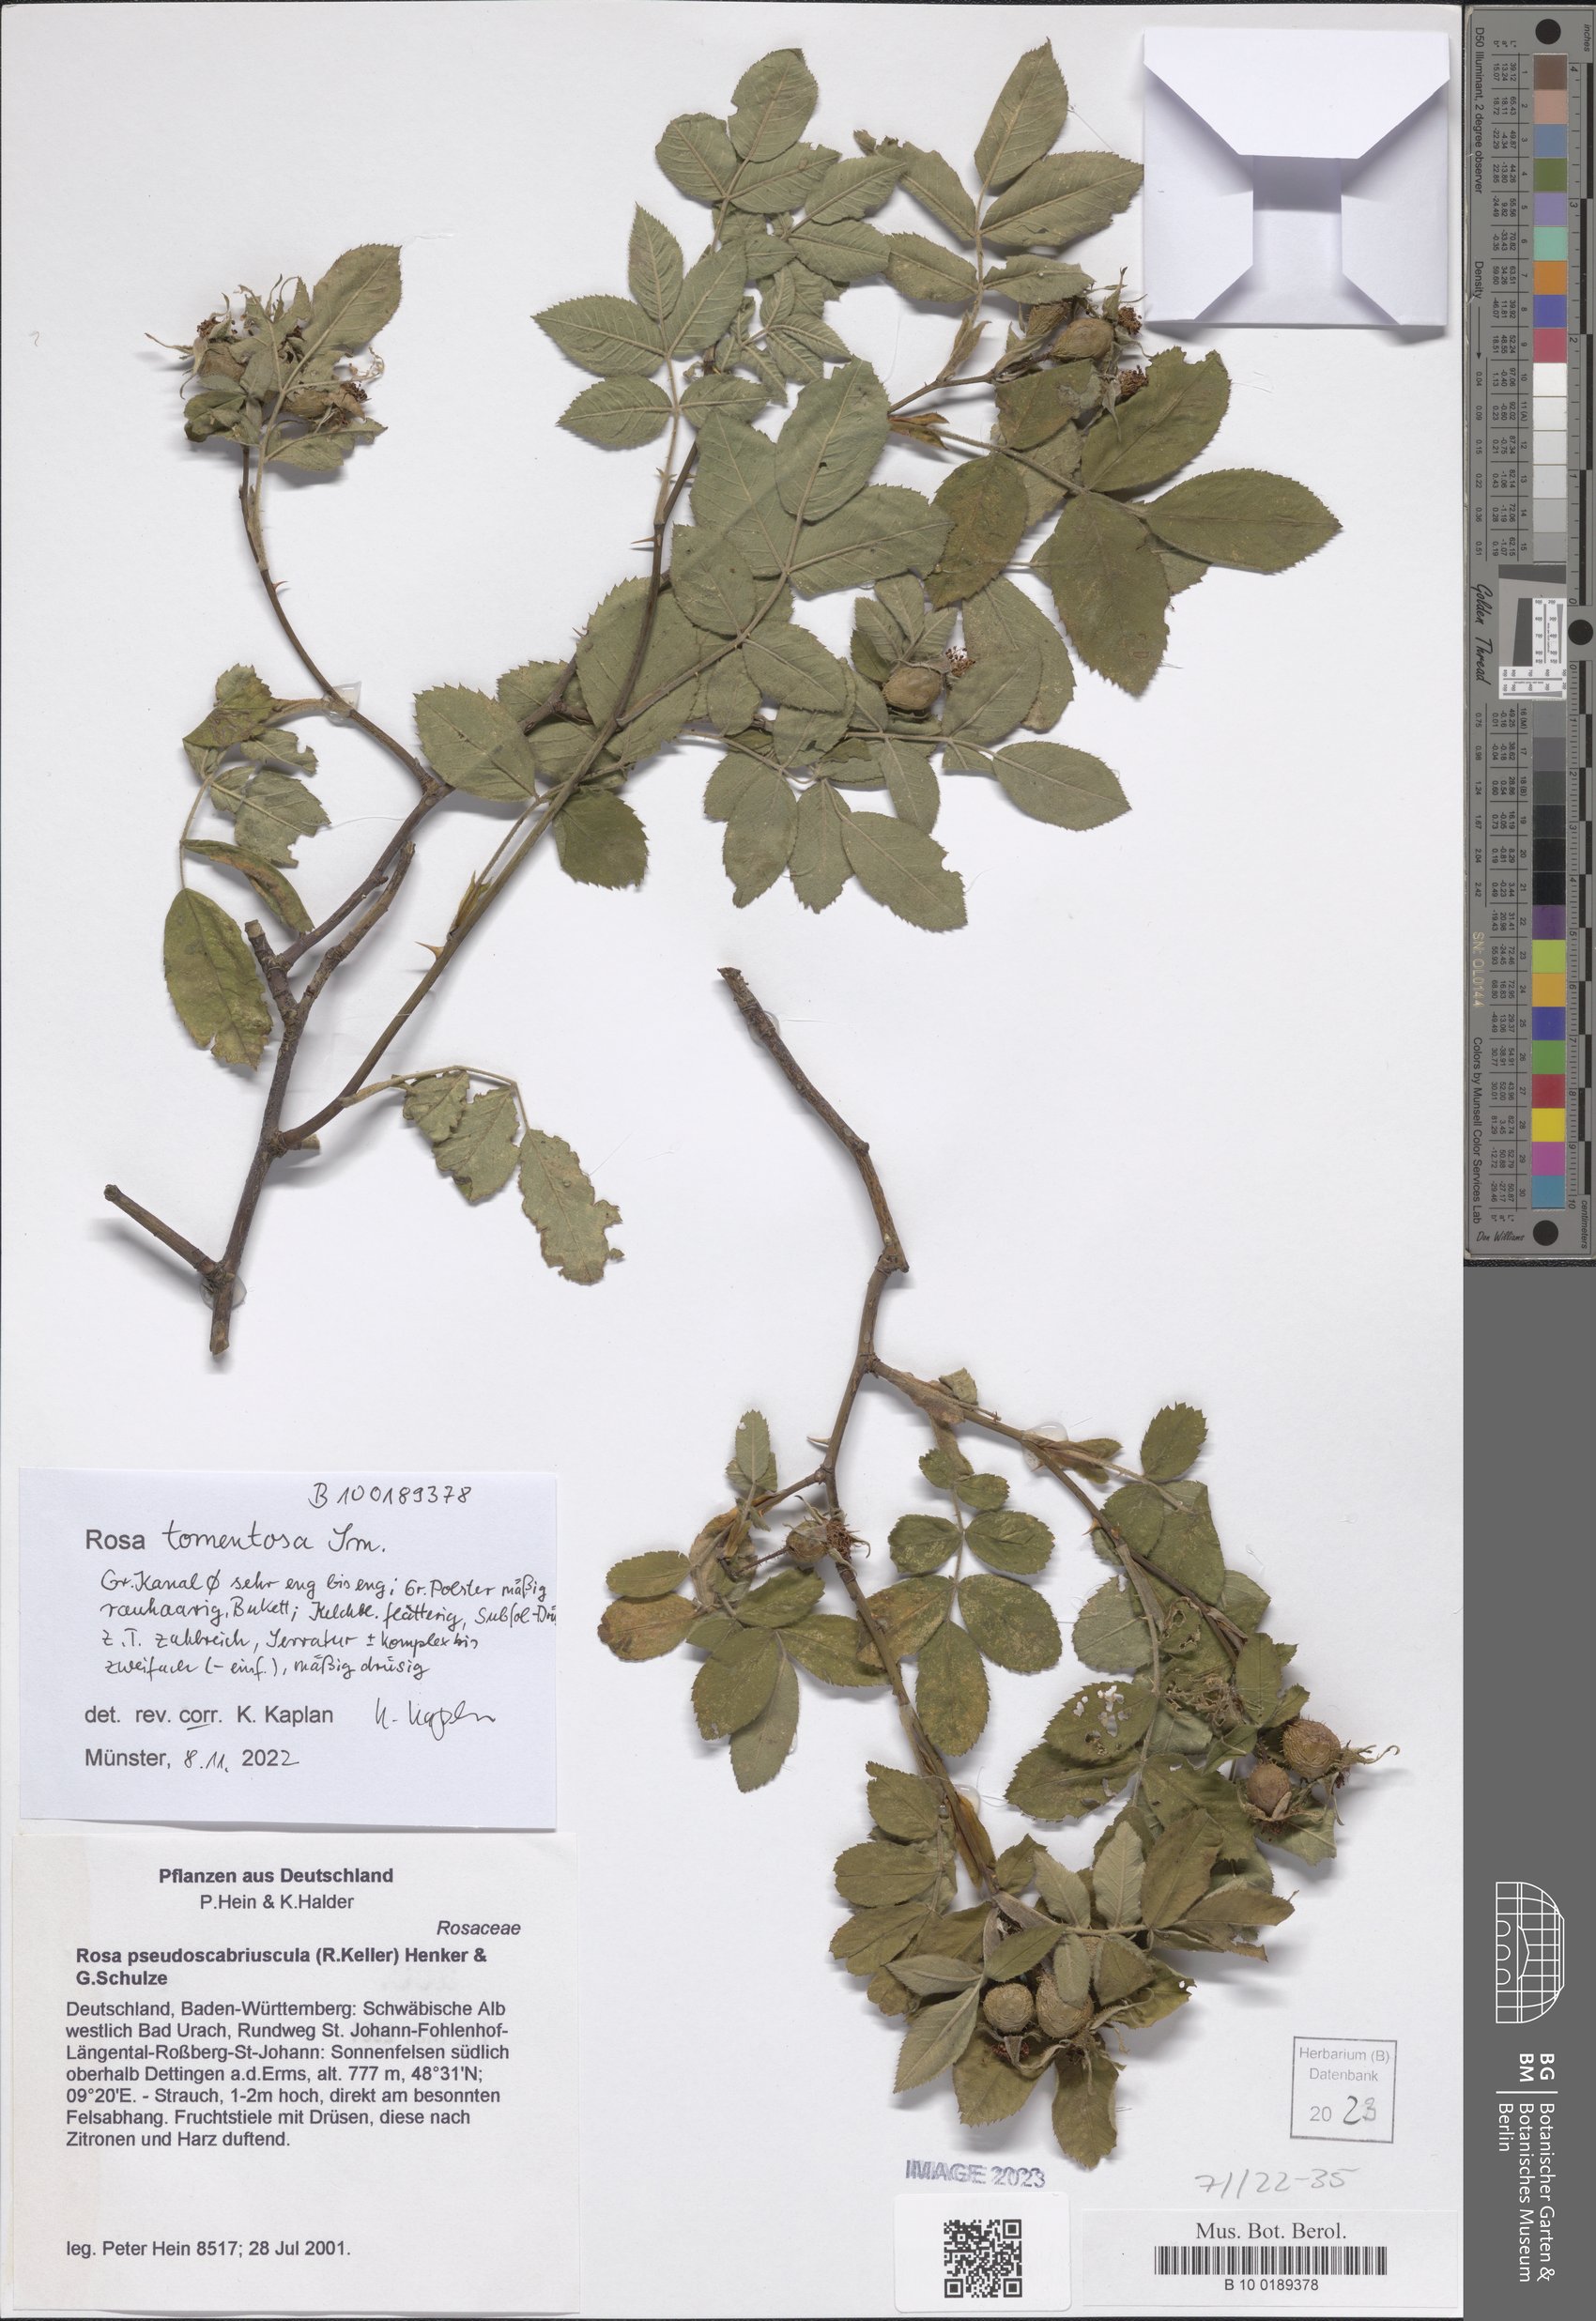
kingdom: Plantae
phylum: Tracheophyta
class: Magnoliopsida
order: Rosales
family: Rosaceae
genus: Rosa
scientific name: Rosa tomentosa
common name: Downy rose
